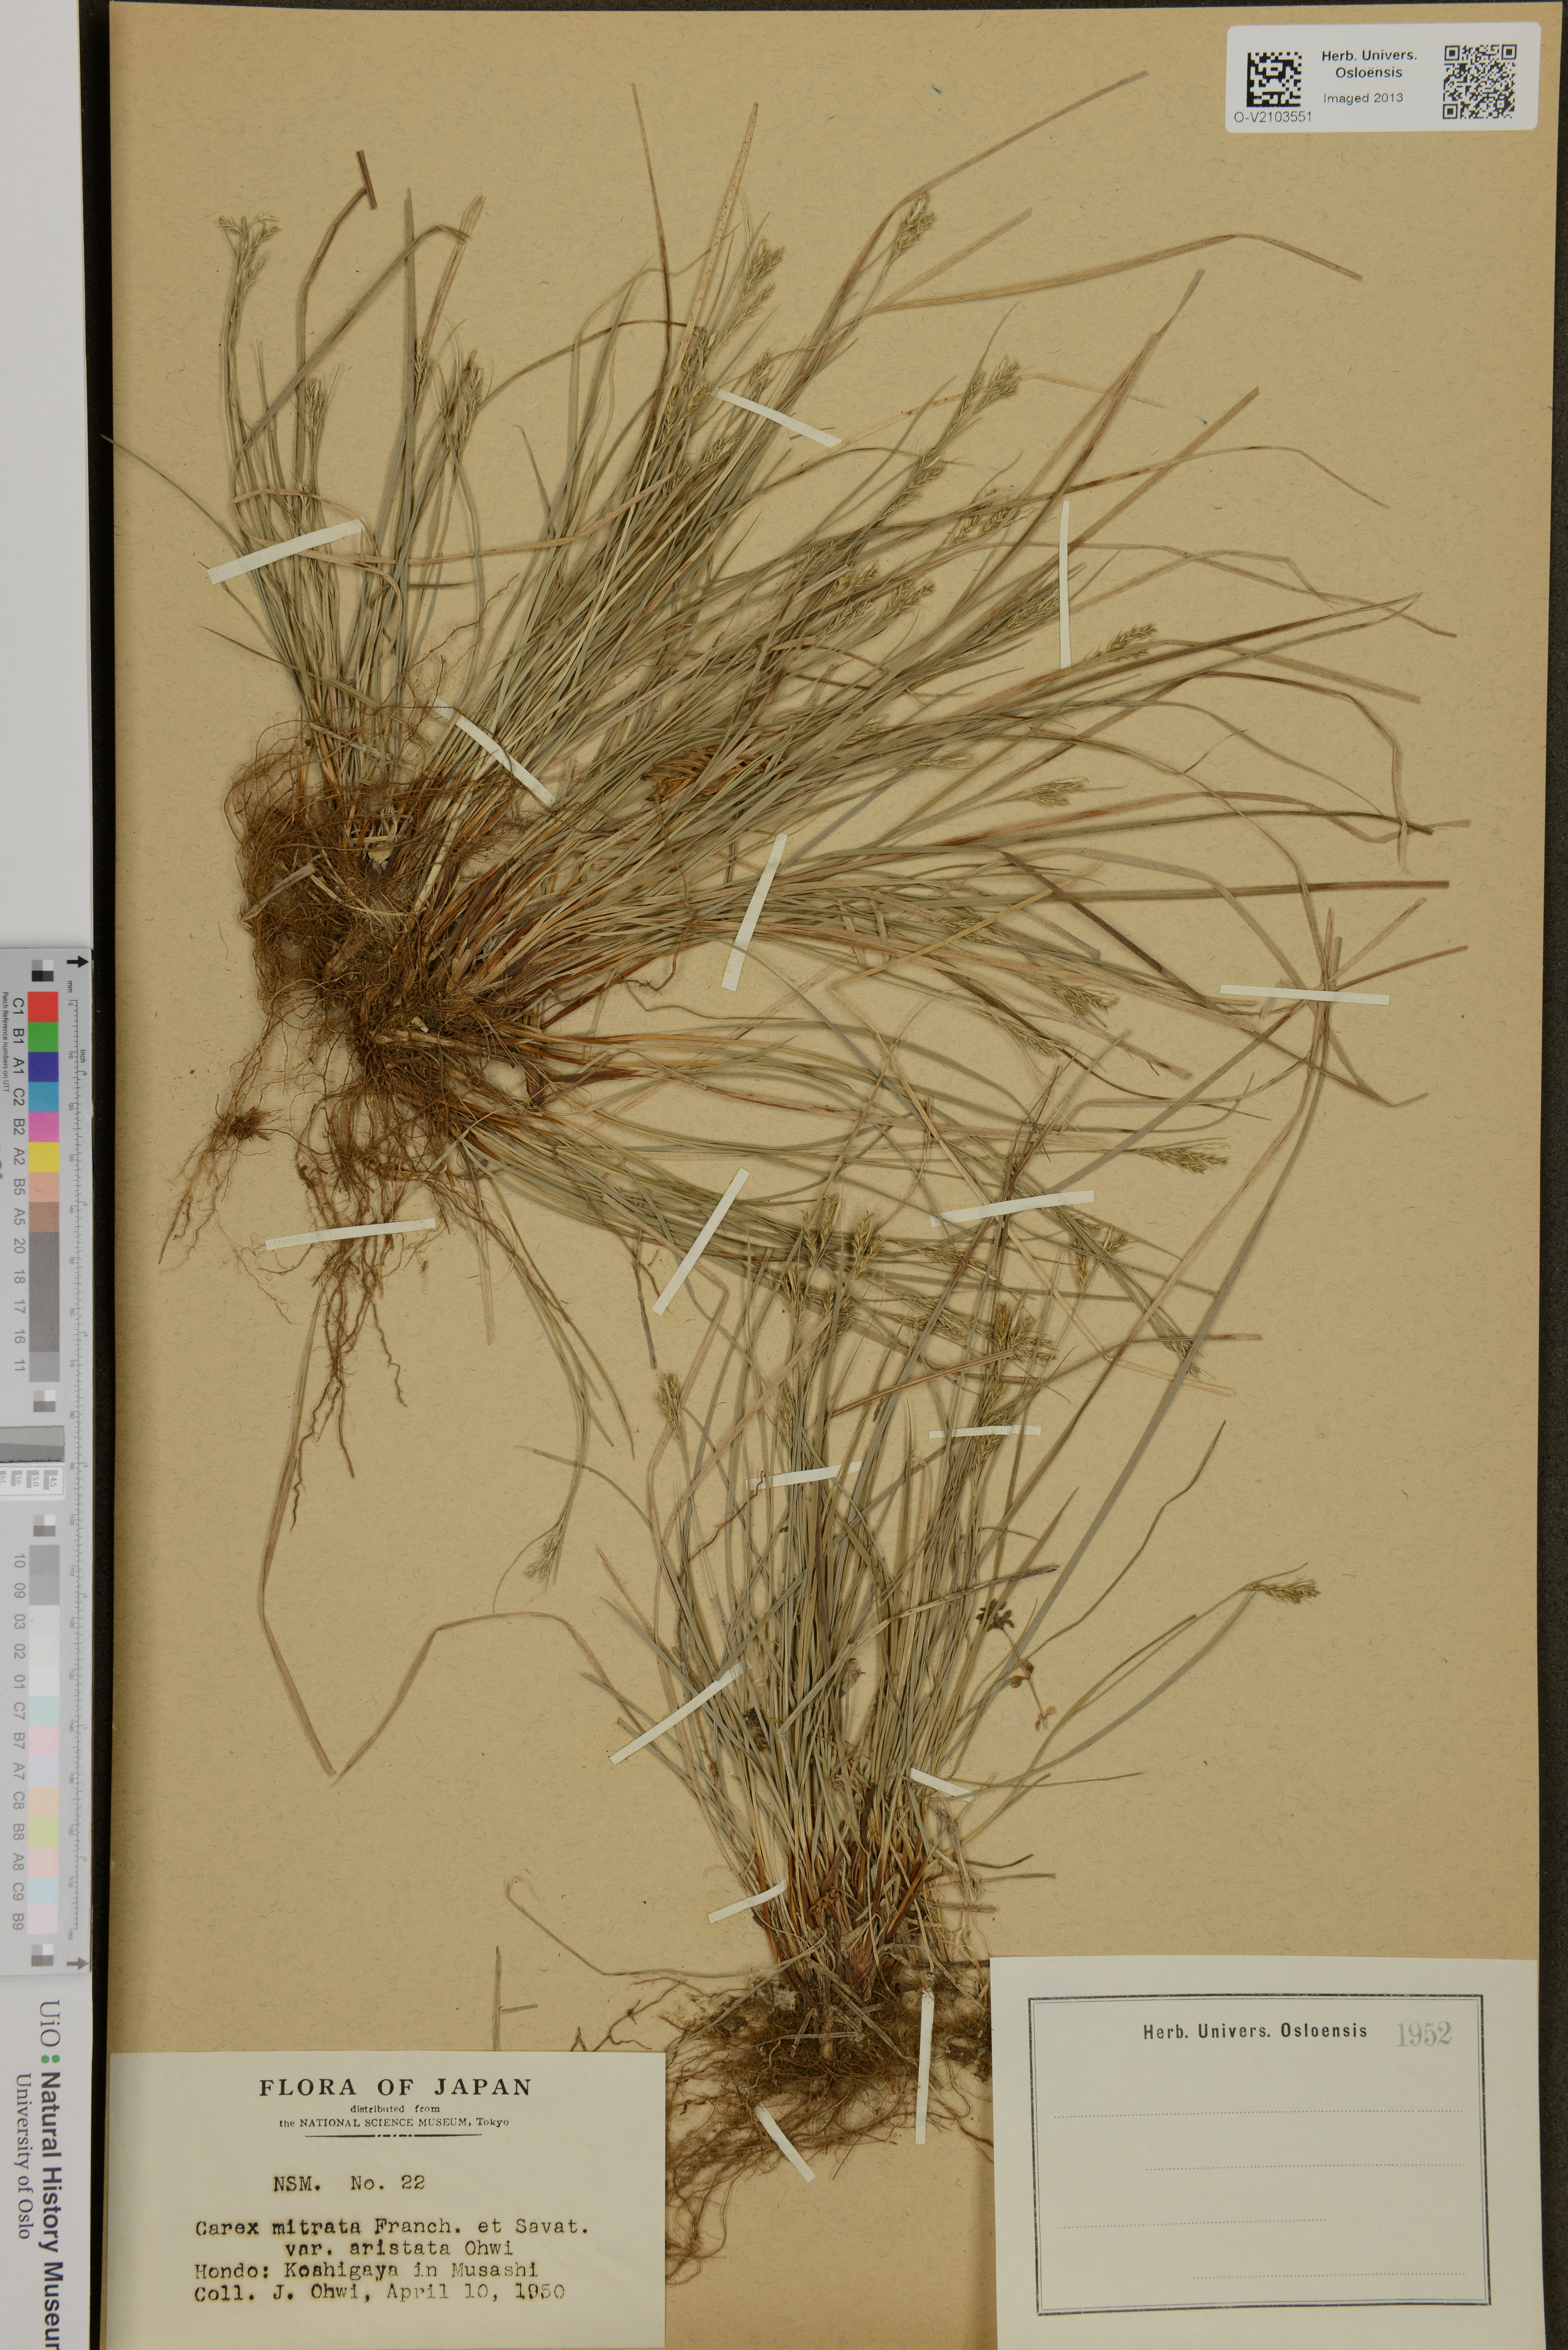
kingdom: Plantae
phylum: Tracheophyta
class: Liliopsida
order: Poales
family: Cyperaceae
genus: Carex
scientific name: Carex mitrata
